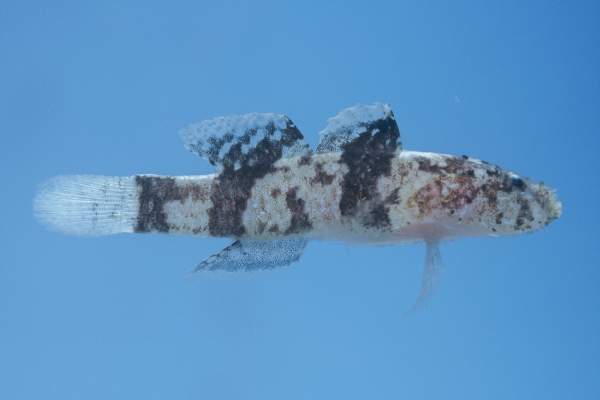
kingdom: Animalia
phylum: Chordata
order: Perciformes
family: Gobiidae
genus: Callogobius
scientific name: Callogobius sclateri
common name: Dusky-banded goby
